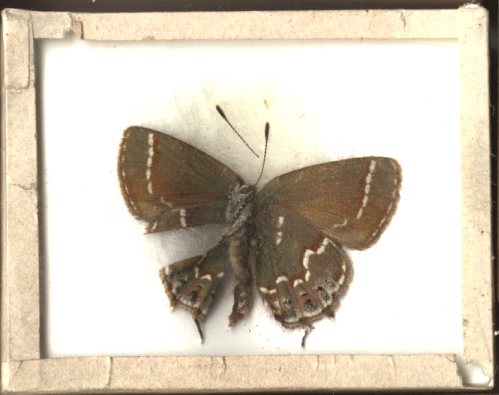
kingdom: Animalia
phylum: Arthropoda
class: Insecta
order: Lepidoptera
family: Lycaenidae
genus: Mitoura
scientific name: Mitoura gryneus
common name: Olive Hairstreak
